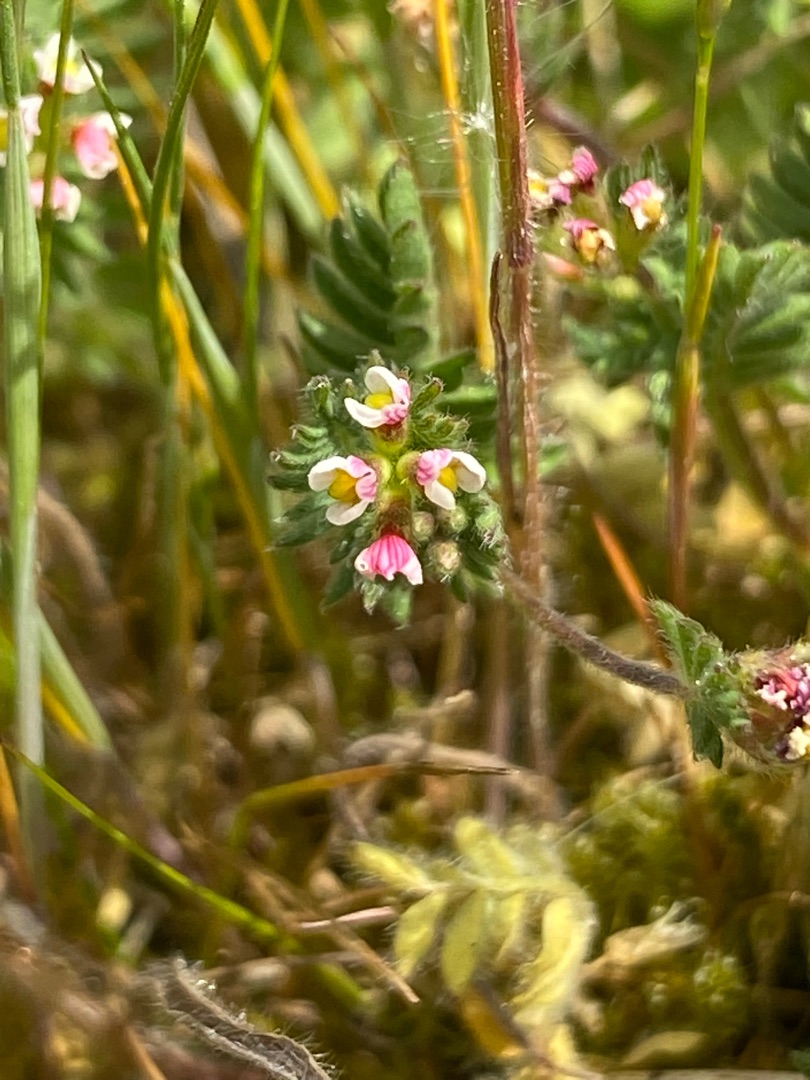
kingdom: Plantae
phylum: Tracheophyta
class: Magnoliopsida
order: Fabales
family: Fabaceae
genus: Ornithopus
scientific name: Ornithopus perpusillus
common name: Liden fugleklo
